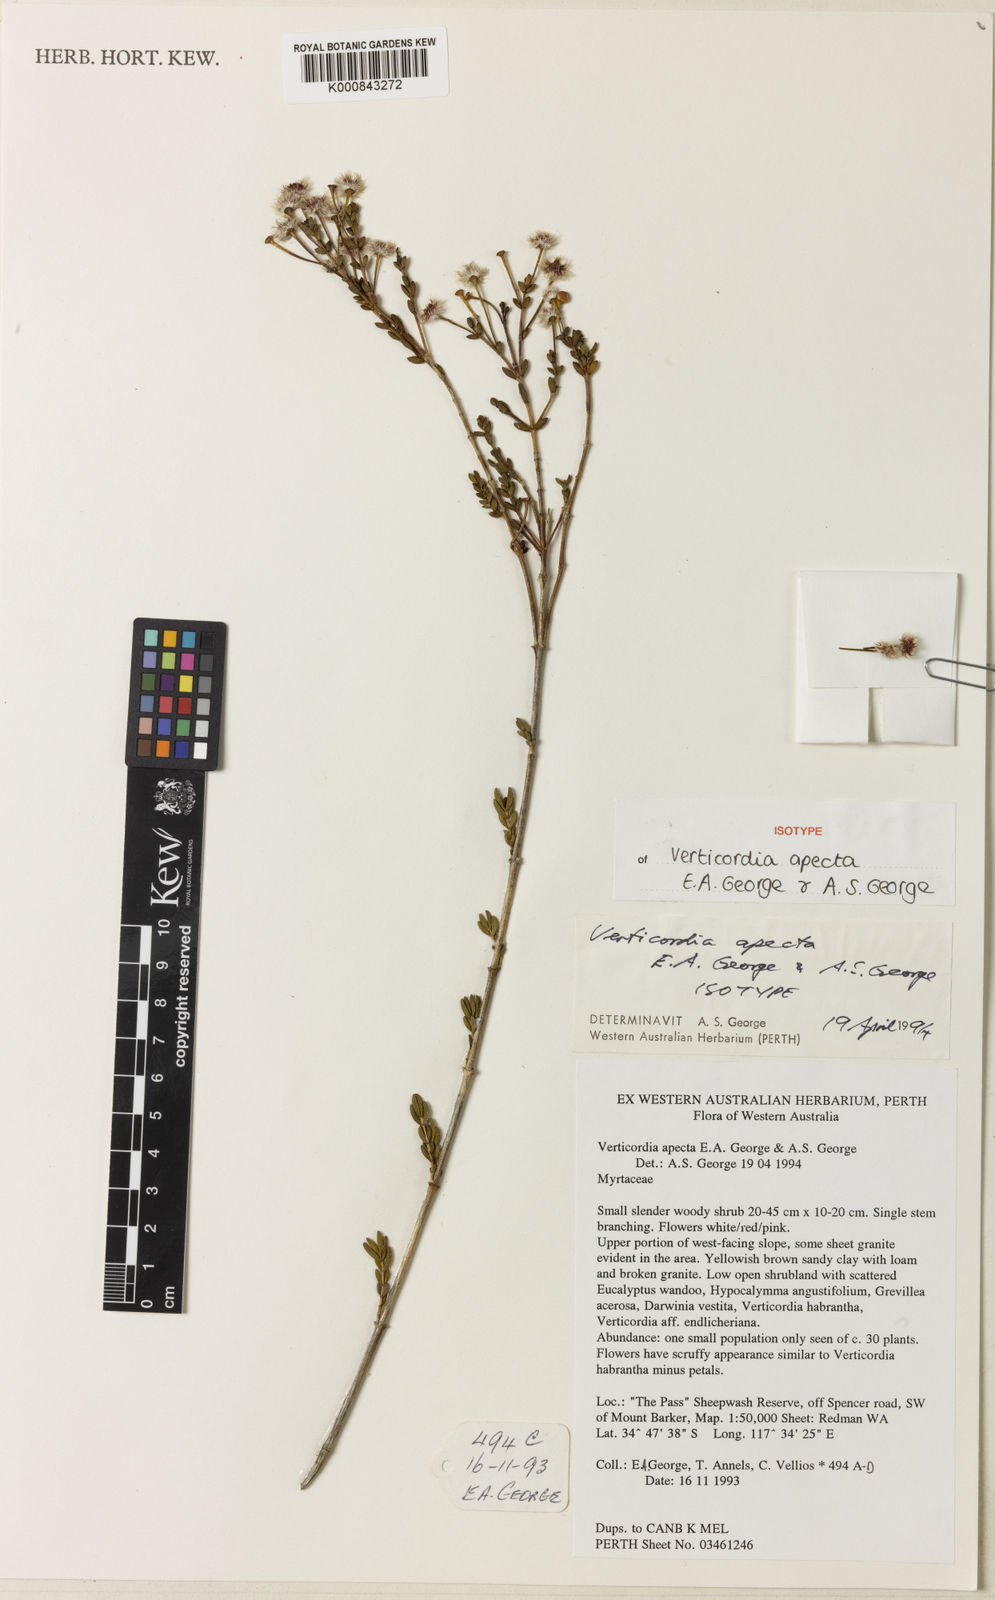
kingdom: Plantae
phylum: Tracheophyta
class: Magnoliopsida
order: Myrtales
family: Myrtaceae
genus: Verticordia
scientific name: Verticordia apecta
